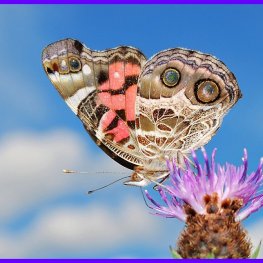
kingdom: Animalia
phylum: Arthropoda
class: Insecta
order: Lepidoptera
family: Nymphalidae
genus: Vanessa
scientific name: Vanessa virginiensis
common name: American Lady
